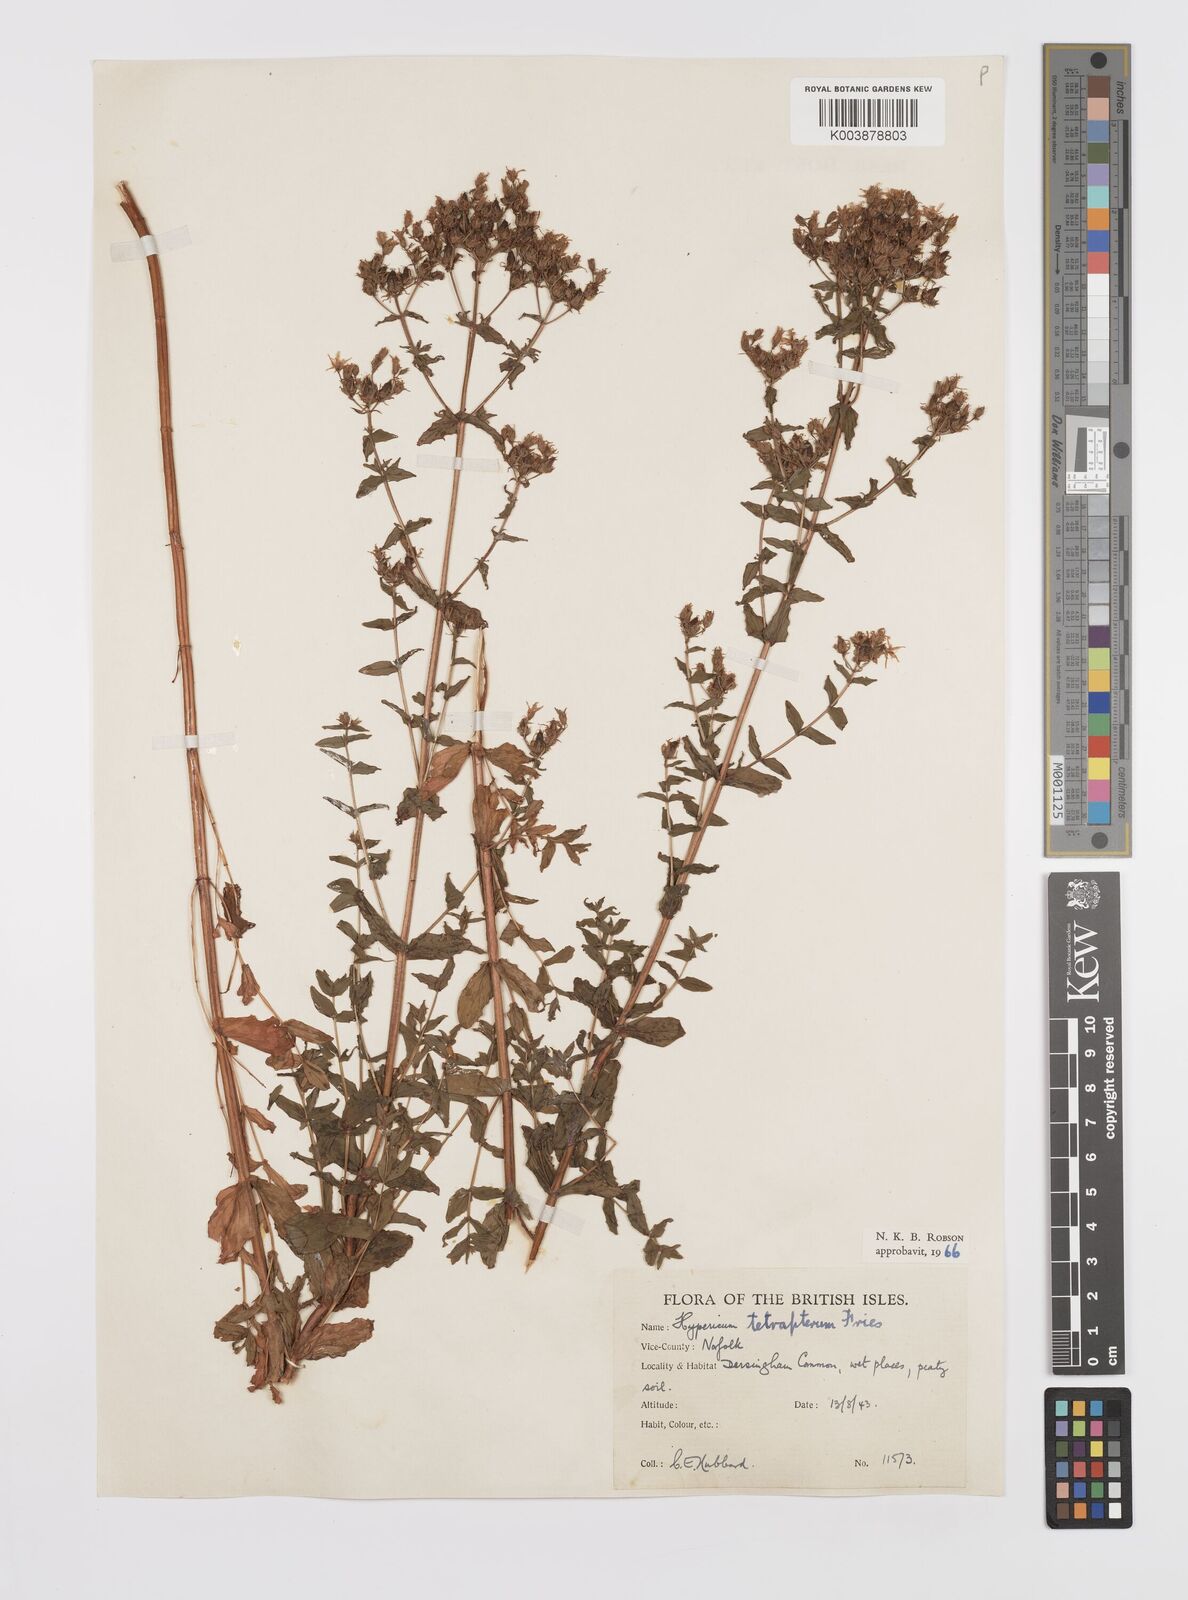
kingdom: Plantae
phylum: Tracheophyta
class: Magnoliopsida
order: Malpighiales
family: Hypericaceae
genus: Hypericum
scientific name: Hypericum tetrapterum
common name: Square-stalked st. john's-wort
